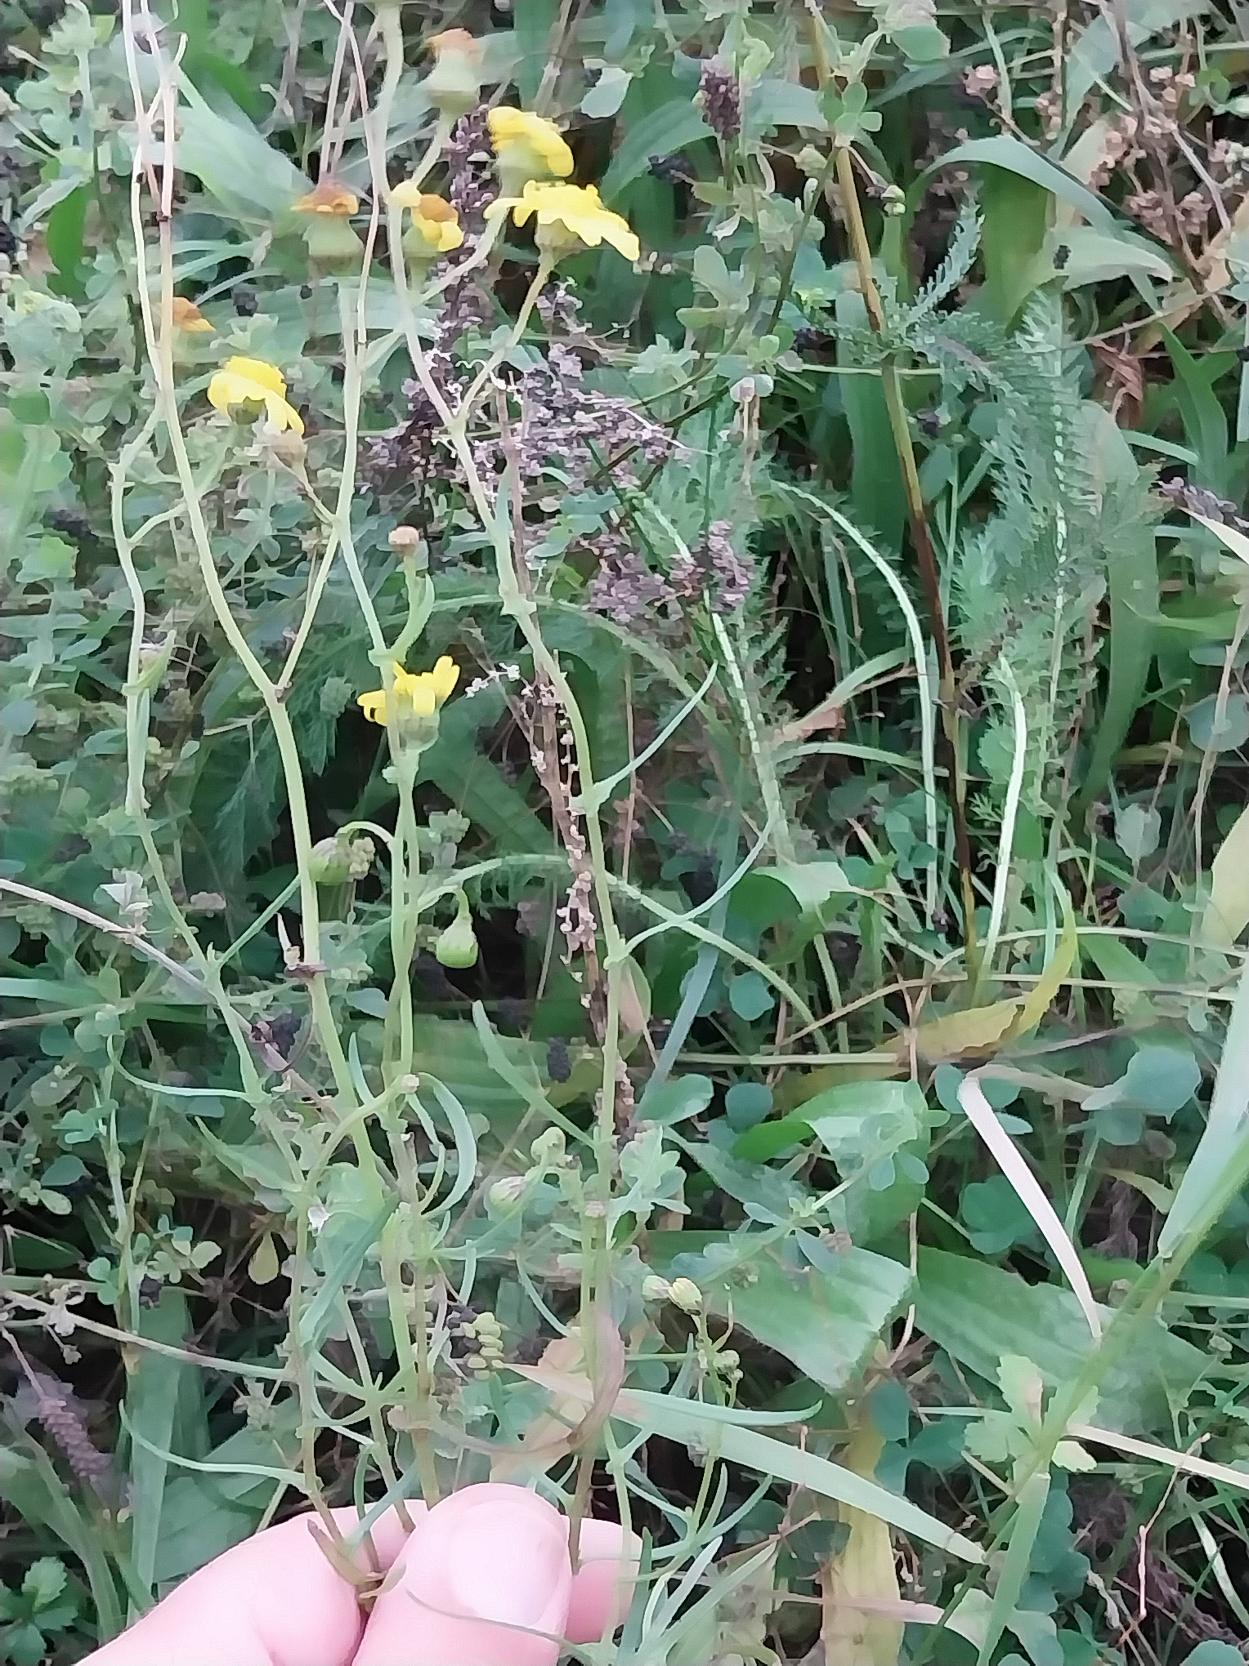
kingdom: Plantae
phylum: Tracheophyta
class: Magnoliopsida
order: Asterales
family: Asteraceae
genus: Senecio
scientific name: Senecio inaequidens
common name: Smalbladet brandbæger
